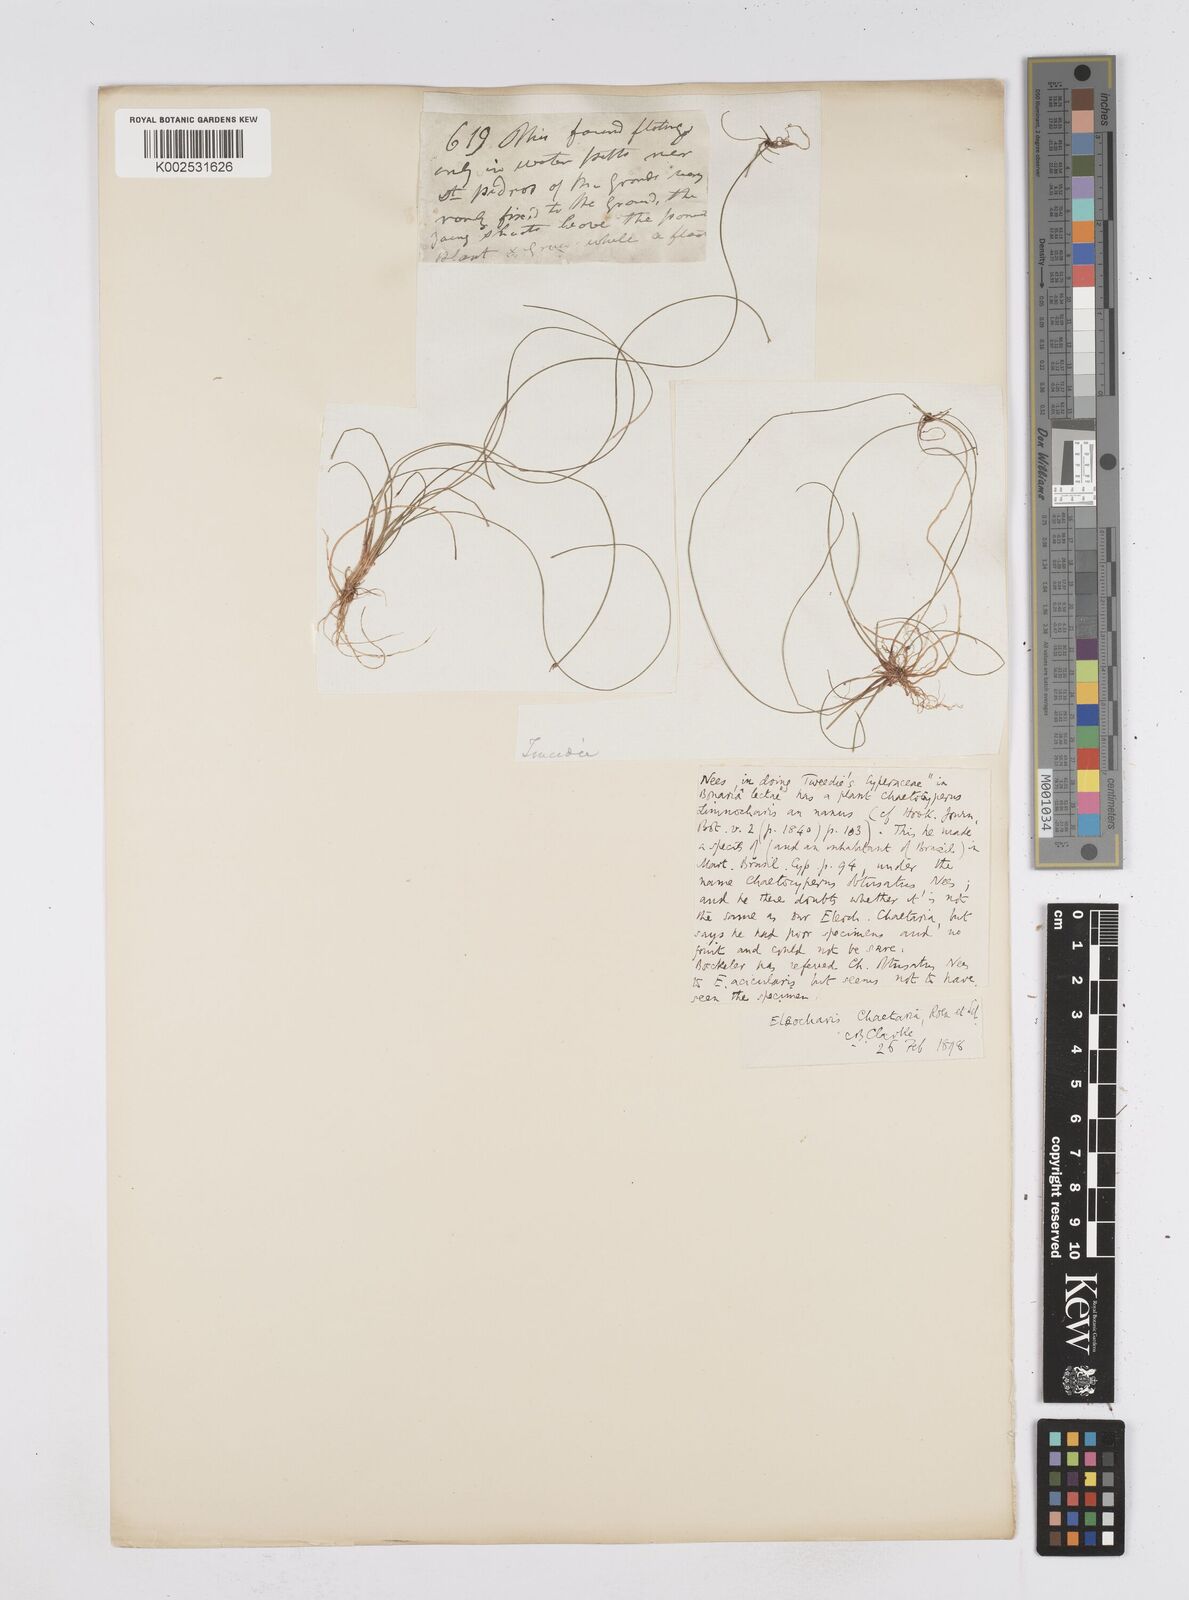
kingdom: Plantae
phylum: Tracheophyta
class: Liliopsida
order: Poales
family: Cyperaceae
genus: Eleocharis
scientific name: Eleocharis retroflexa
